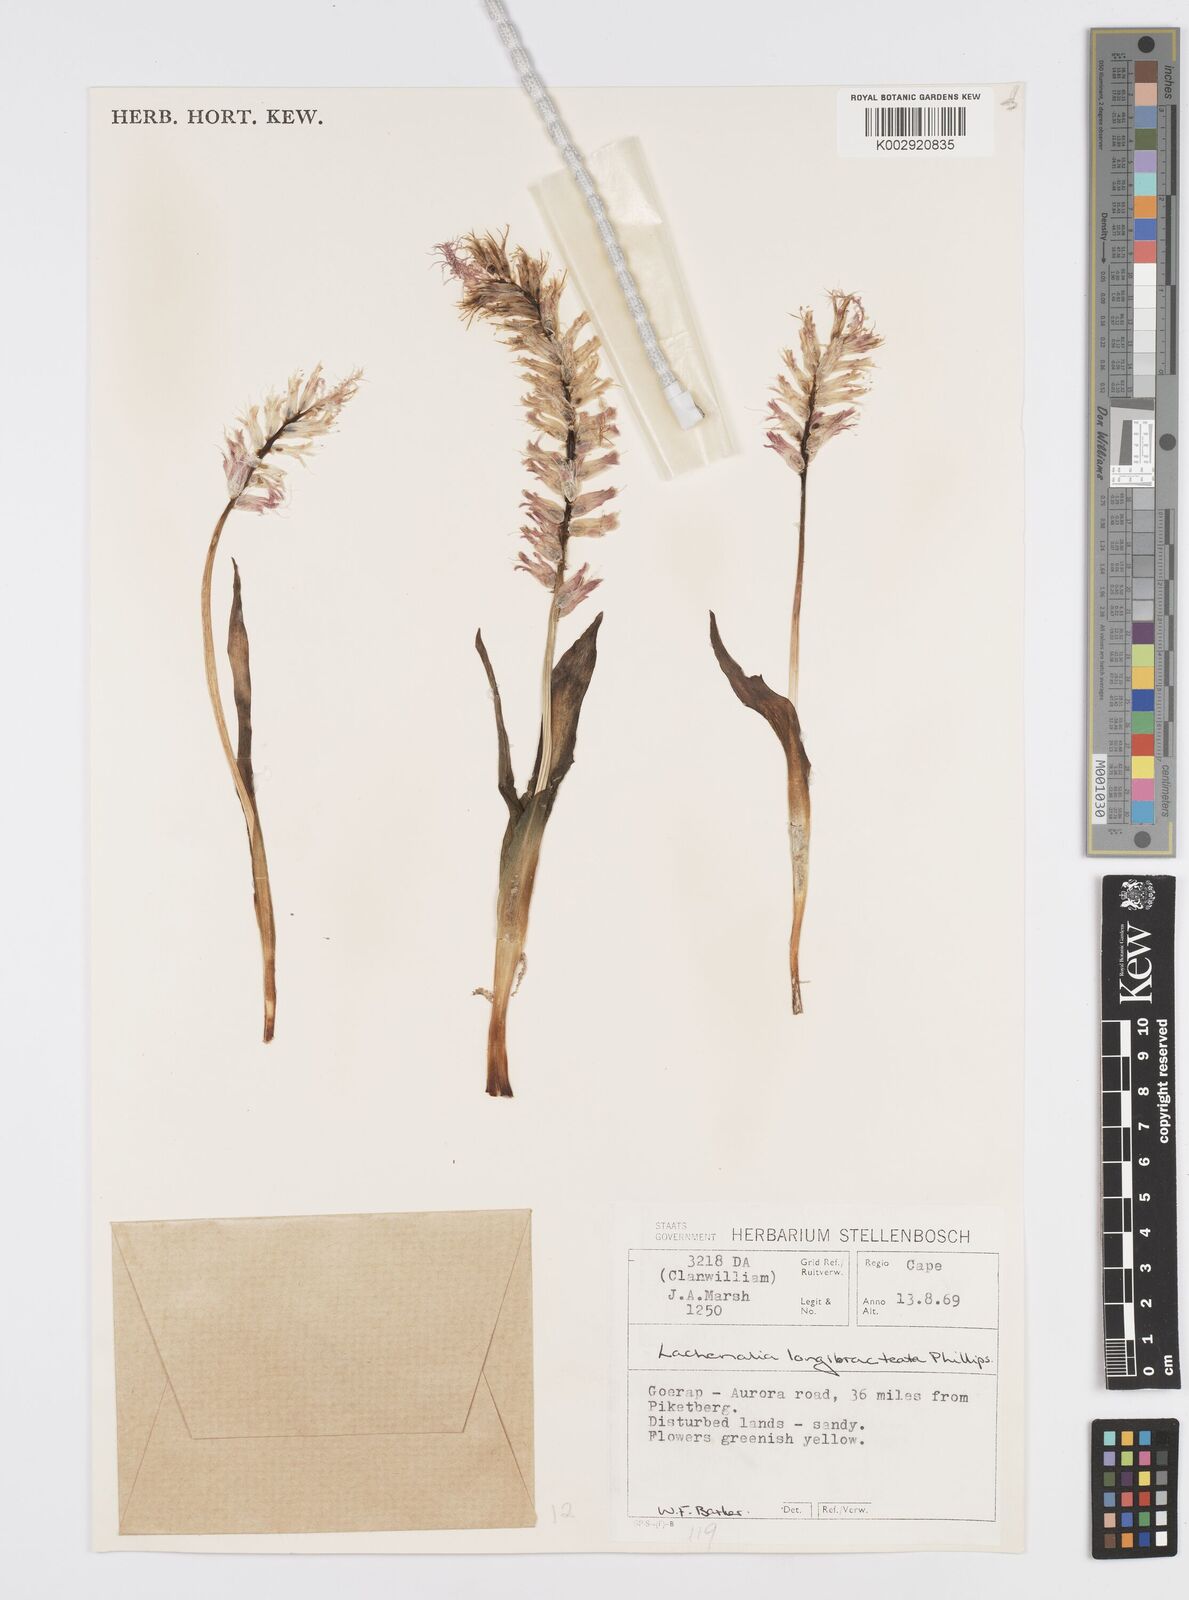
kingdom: Plantae
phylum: Tracheophyta
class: Liliopsida
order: Asparagales
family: Asparagaceae
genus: Lachenalia
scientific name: Lachenalia longibracteata
